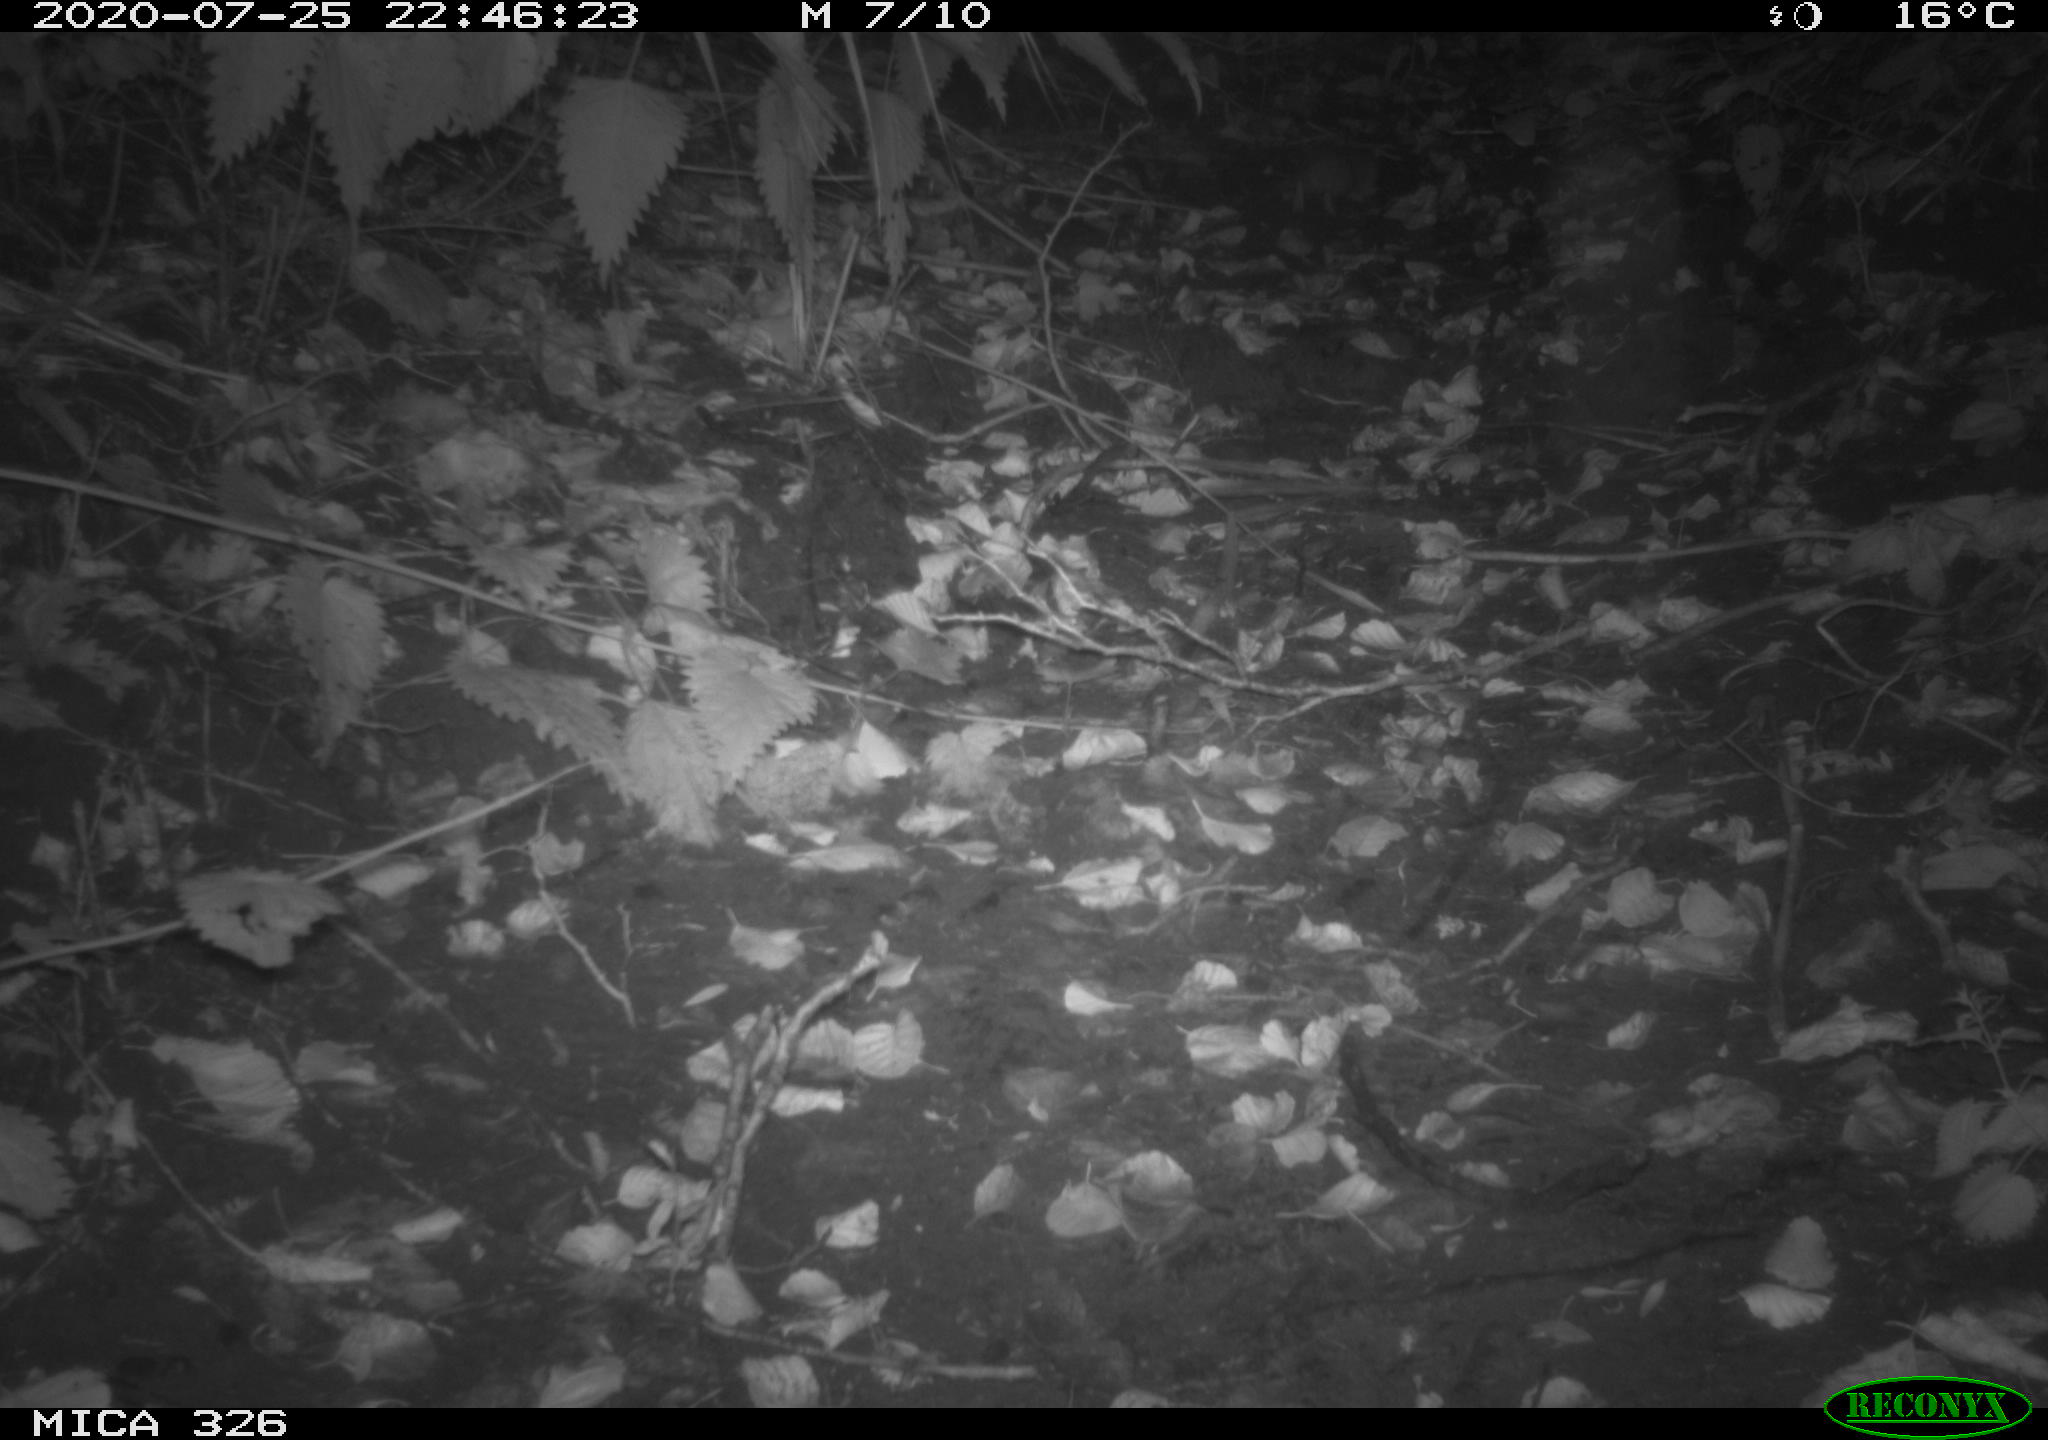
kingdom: Animalia
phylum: Chordata
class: Mammalia
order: Rodentia
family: Muridae
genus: Rattus
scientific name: Rattus norvegicus
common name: Brown rat
